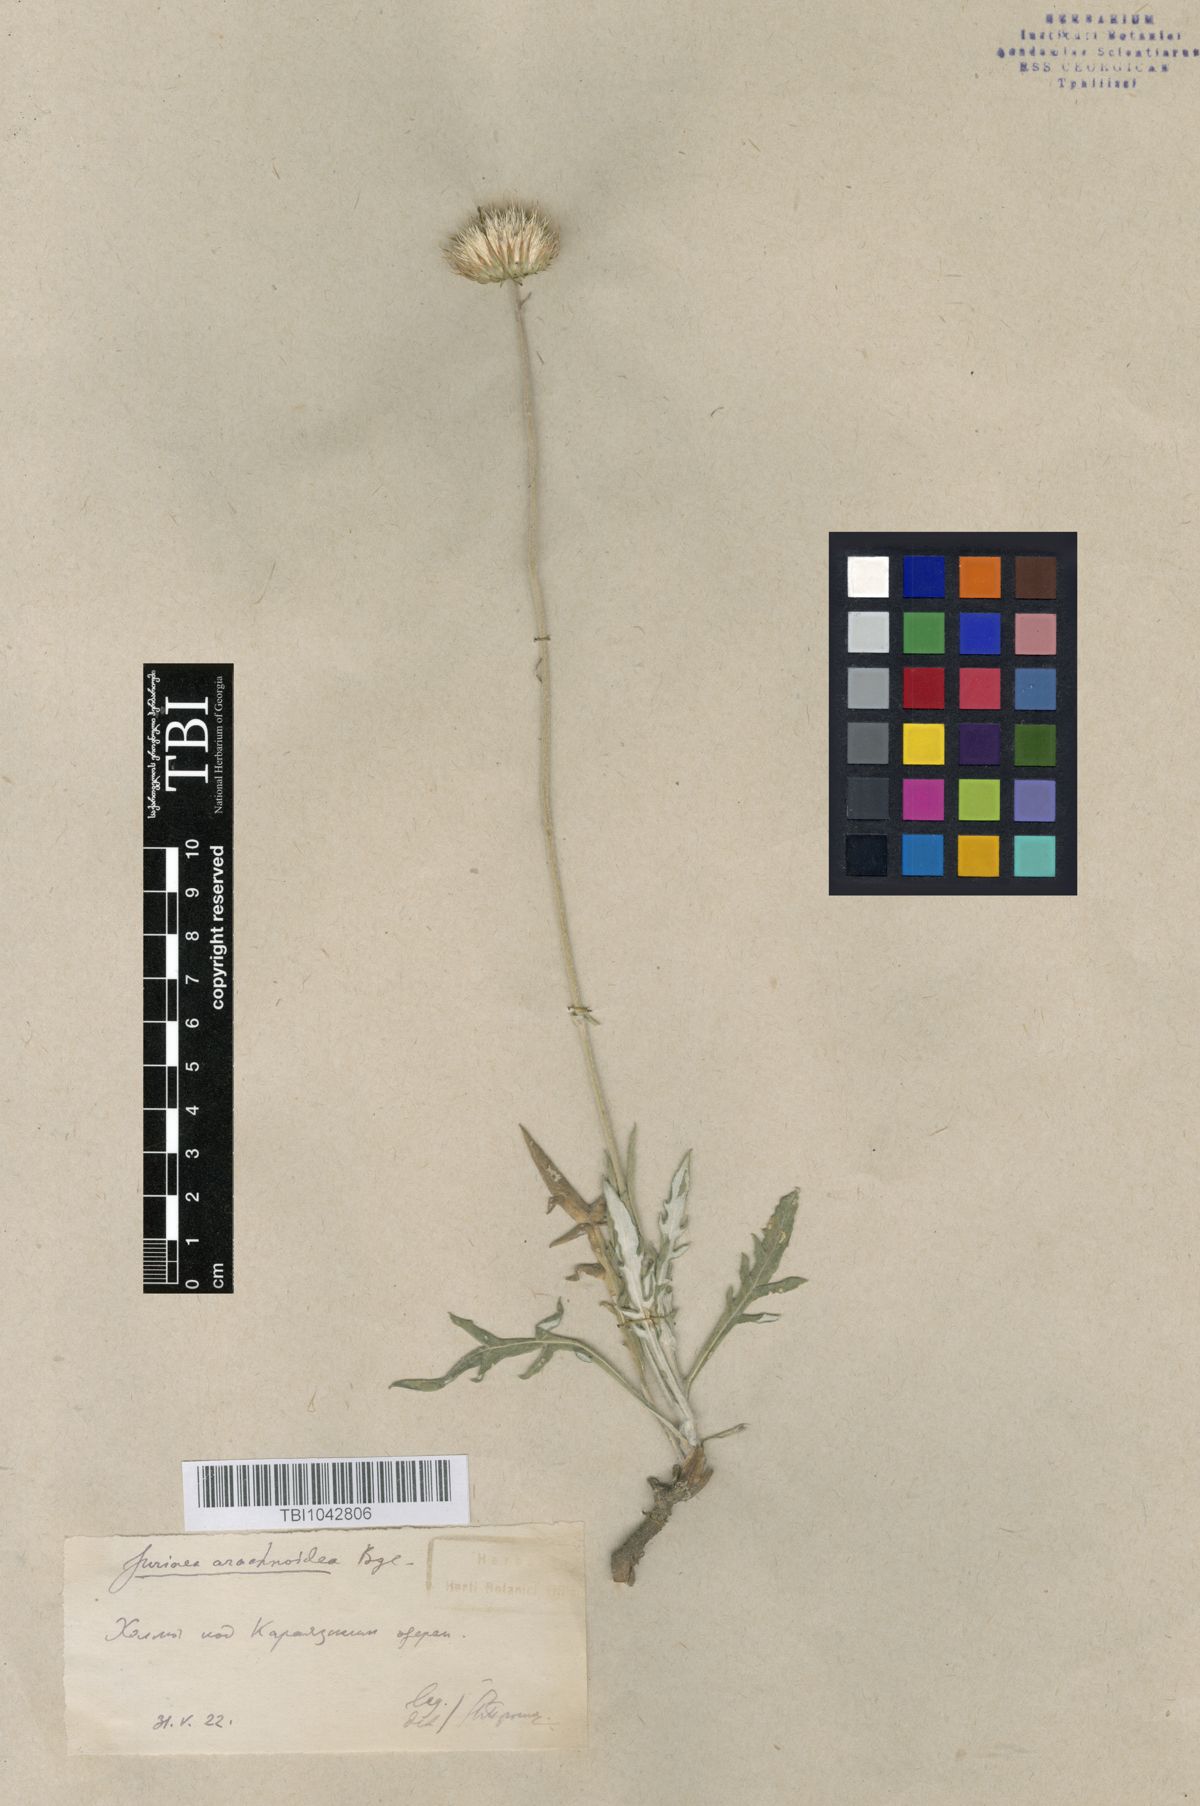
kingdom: Plantae
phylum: Tracheophyta
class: Magnoliopsida
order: Asterales
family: Asteraceae
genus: Jurinea
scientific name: Jurinea blanda
